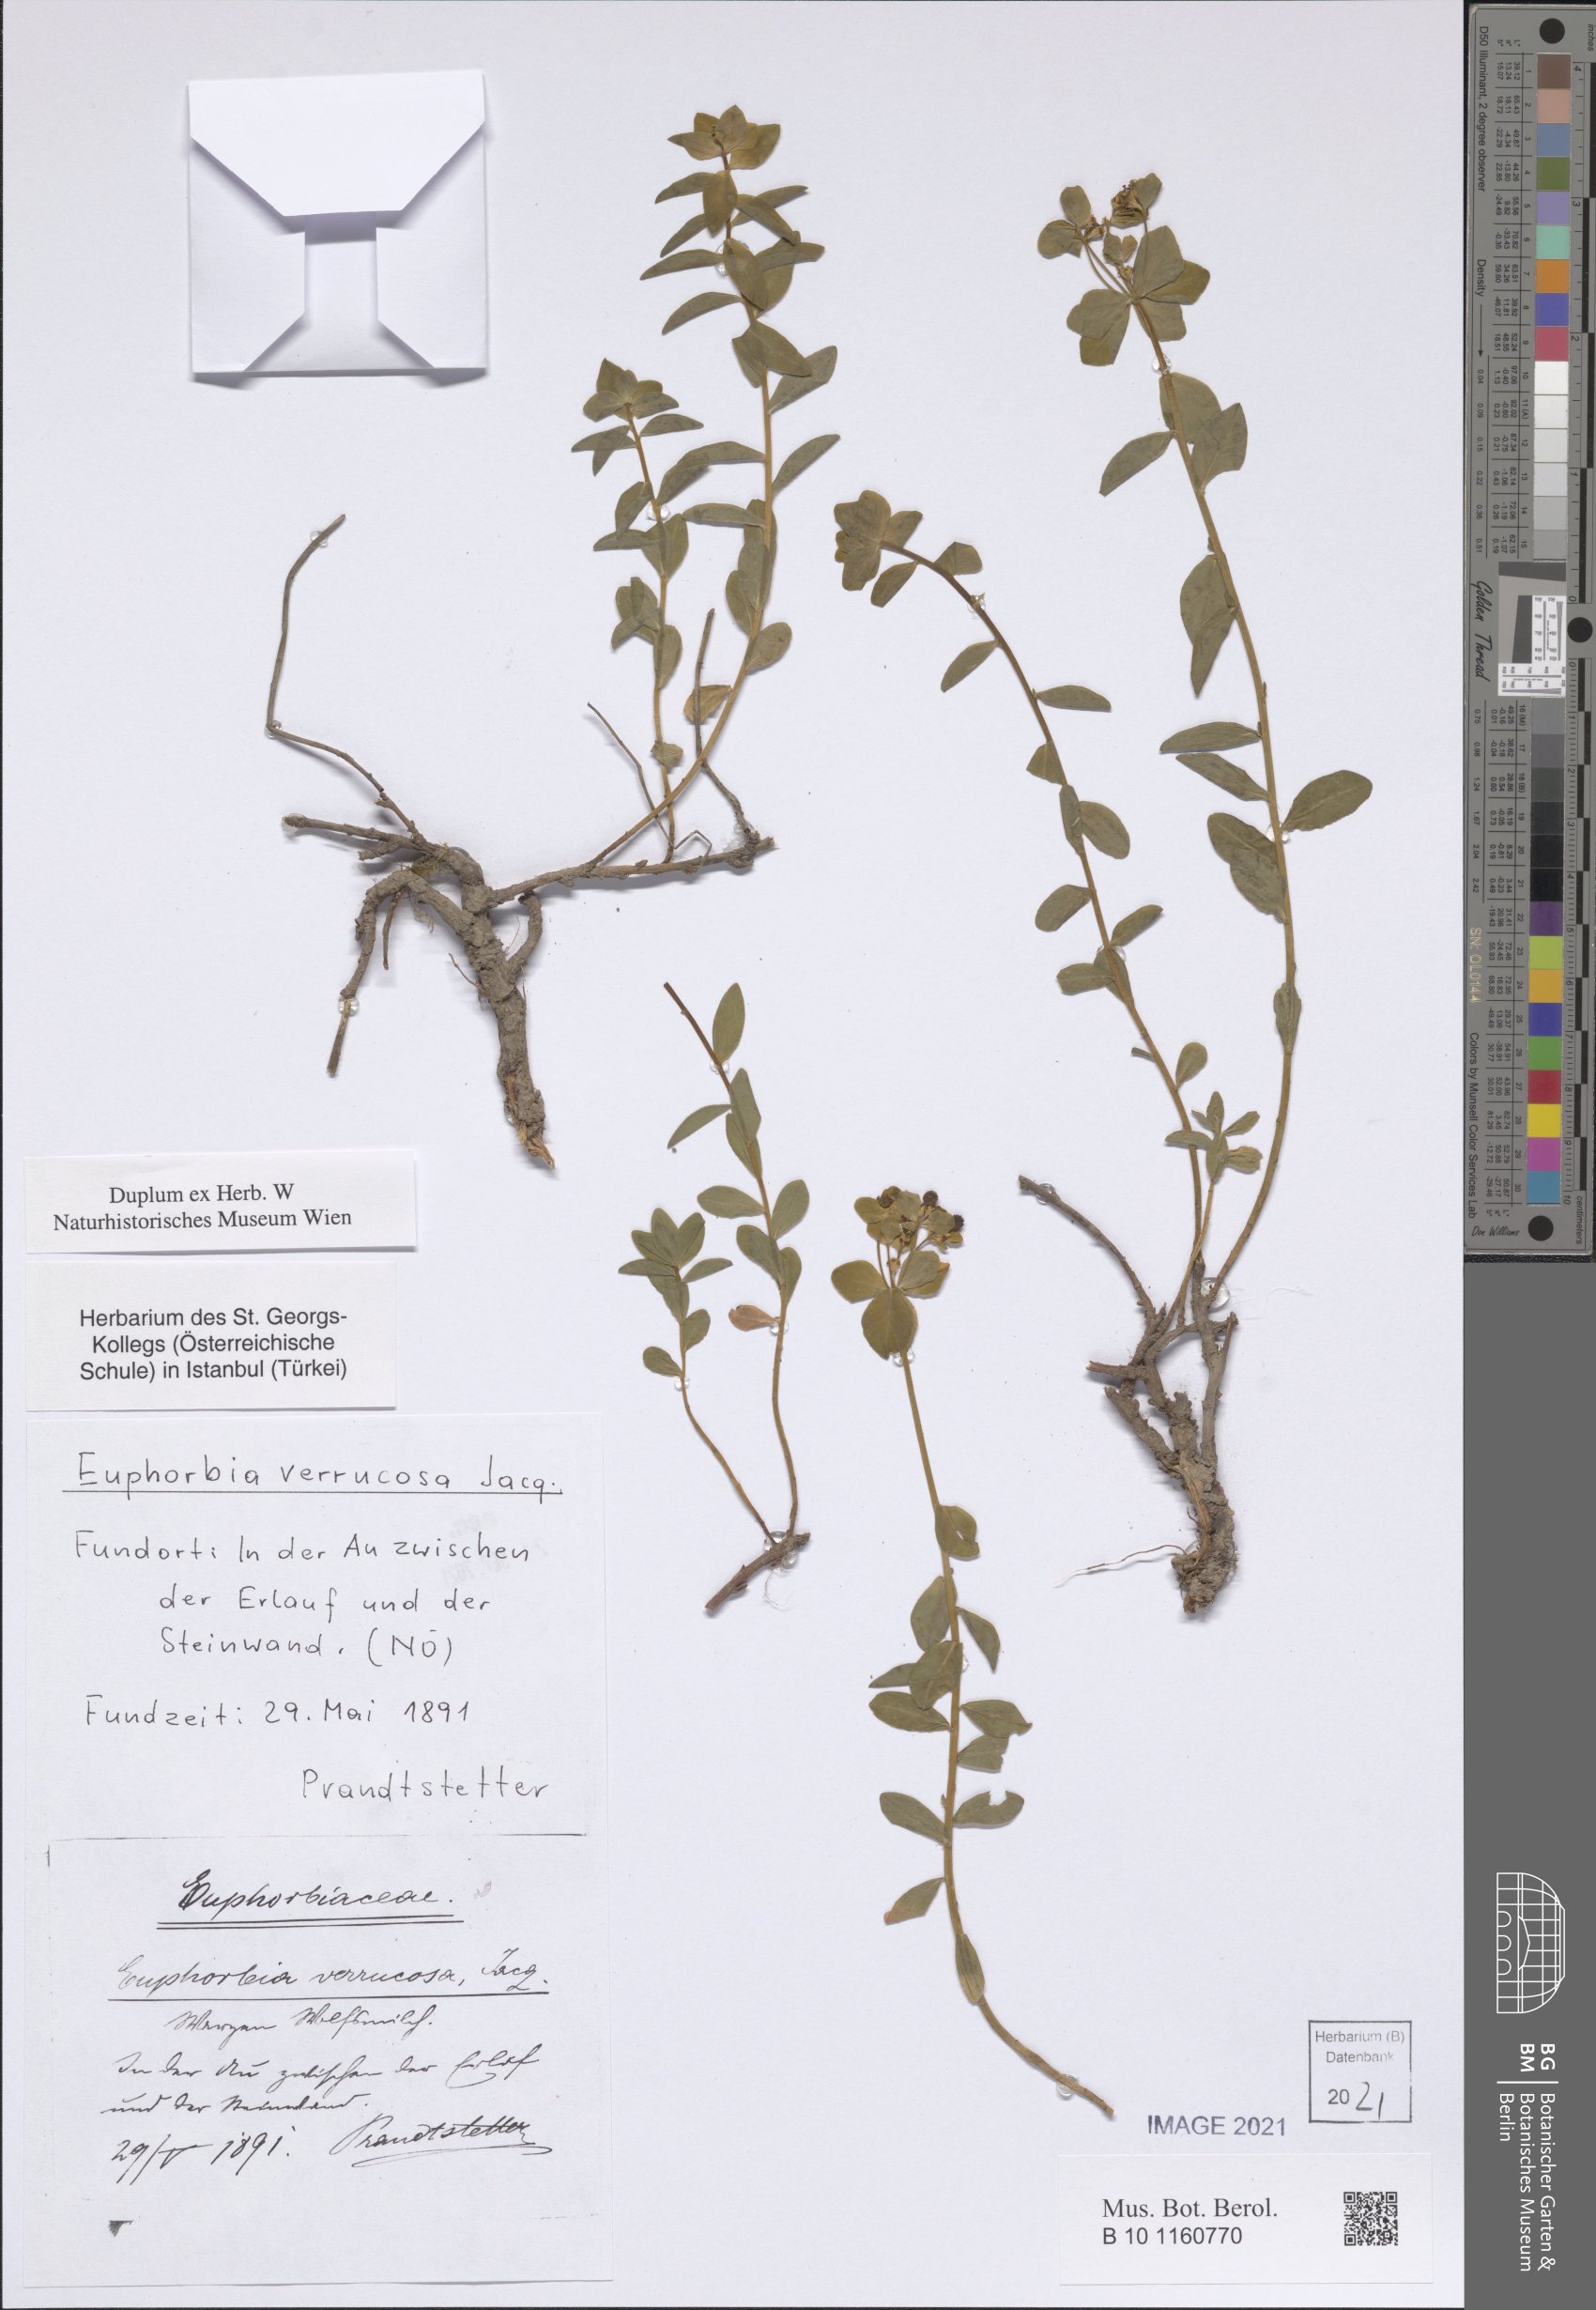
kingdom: Plantae
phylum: Tracheophyta
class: Magnoliopsida
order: Malpighiales
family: Euphorbiaceae
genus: Euphorbia
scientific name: Euphorbia verrucosa
